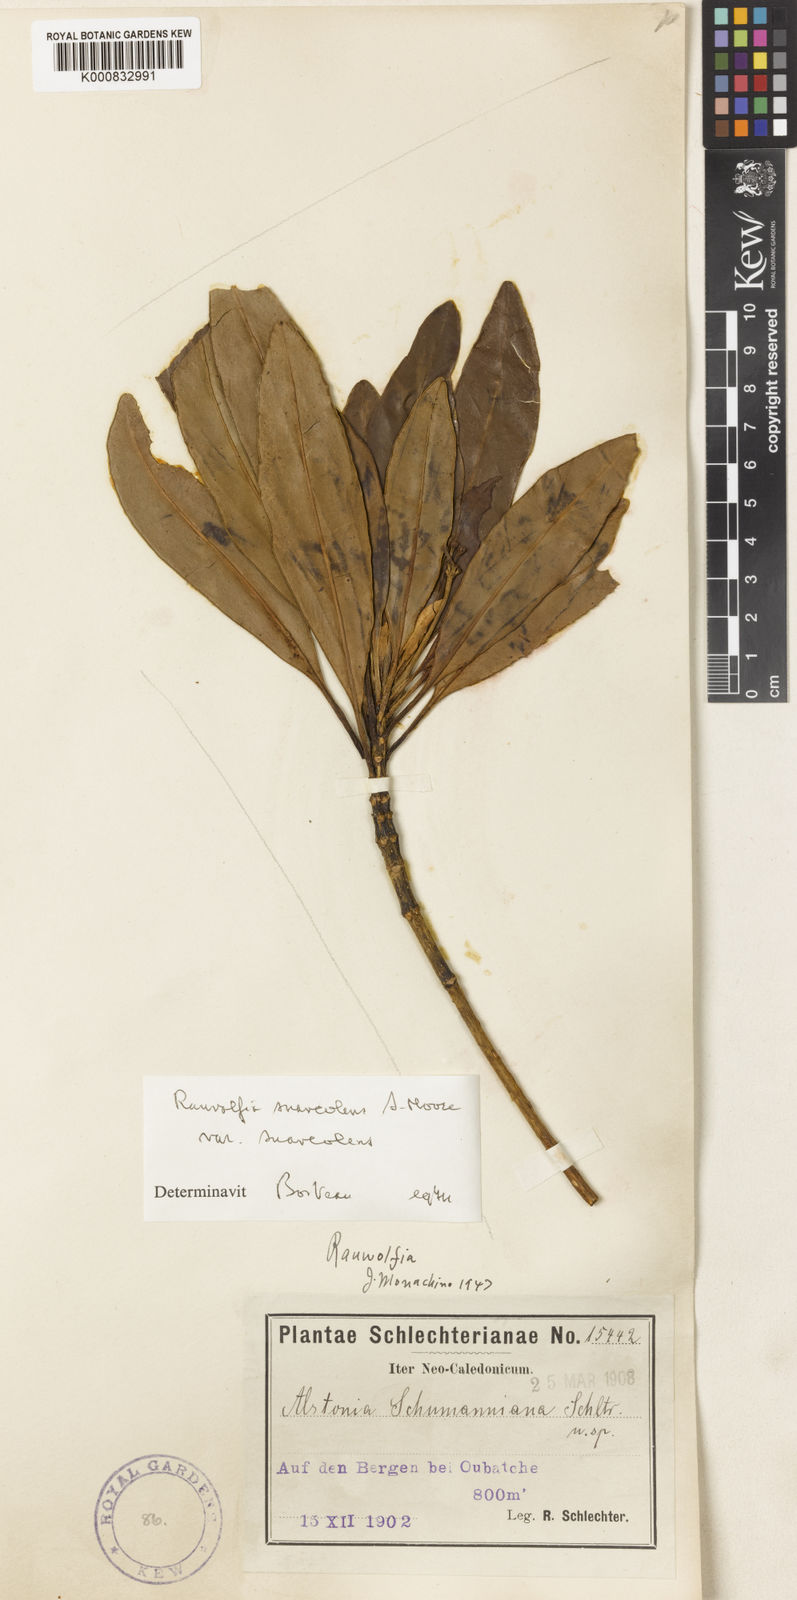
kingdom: Plantae
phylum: Tracheophyta
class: Magnoliopsida
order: Gentianales
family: Apocynaceae
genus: Rauvolfia
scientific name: Rauvolfia balansae
